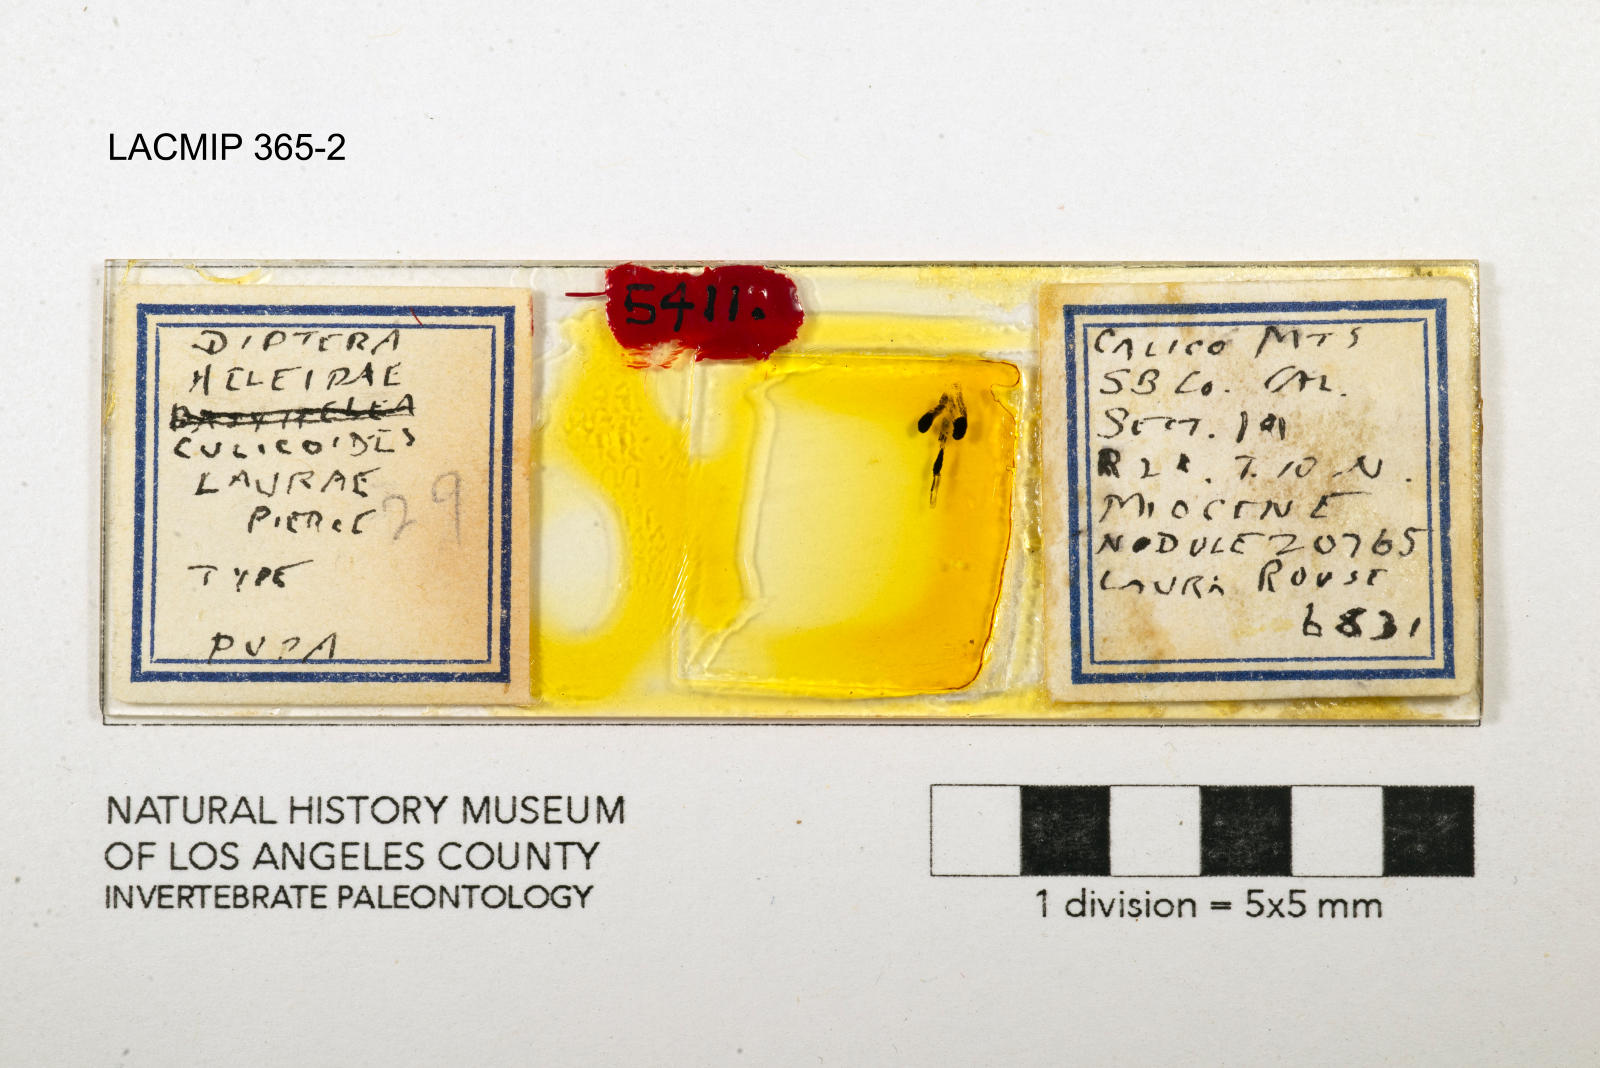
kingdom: Animalia
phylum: Arthropoda
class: Insecta
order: Diptera
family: Ceratopogonidae
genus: Culicoides
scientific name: Culicoides laurae
